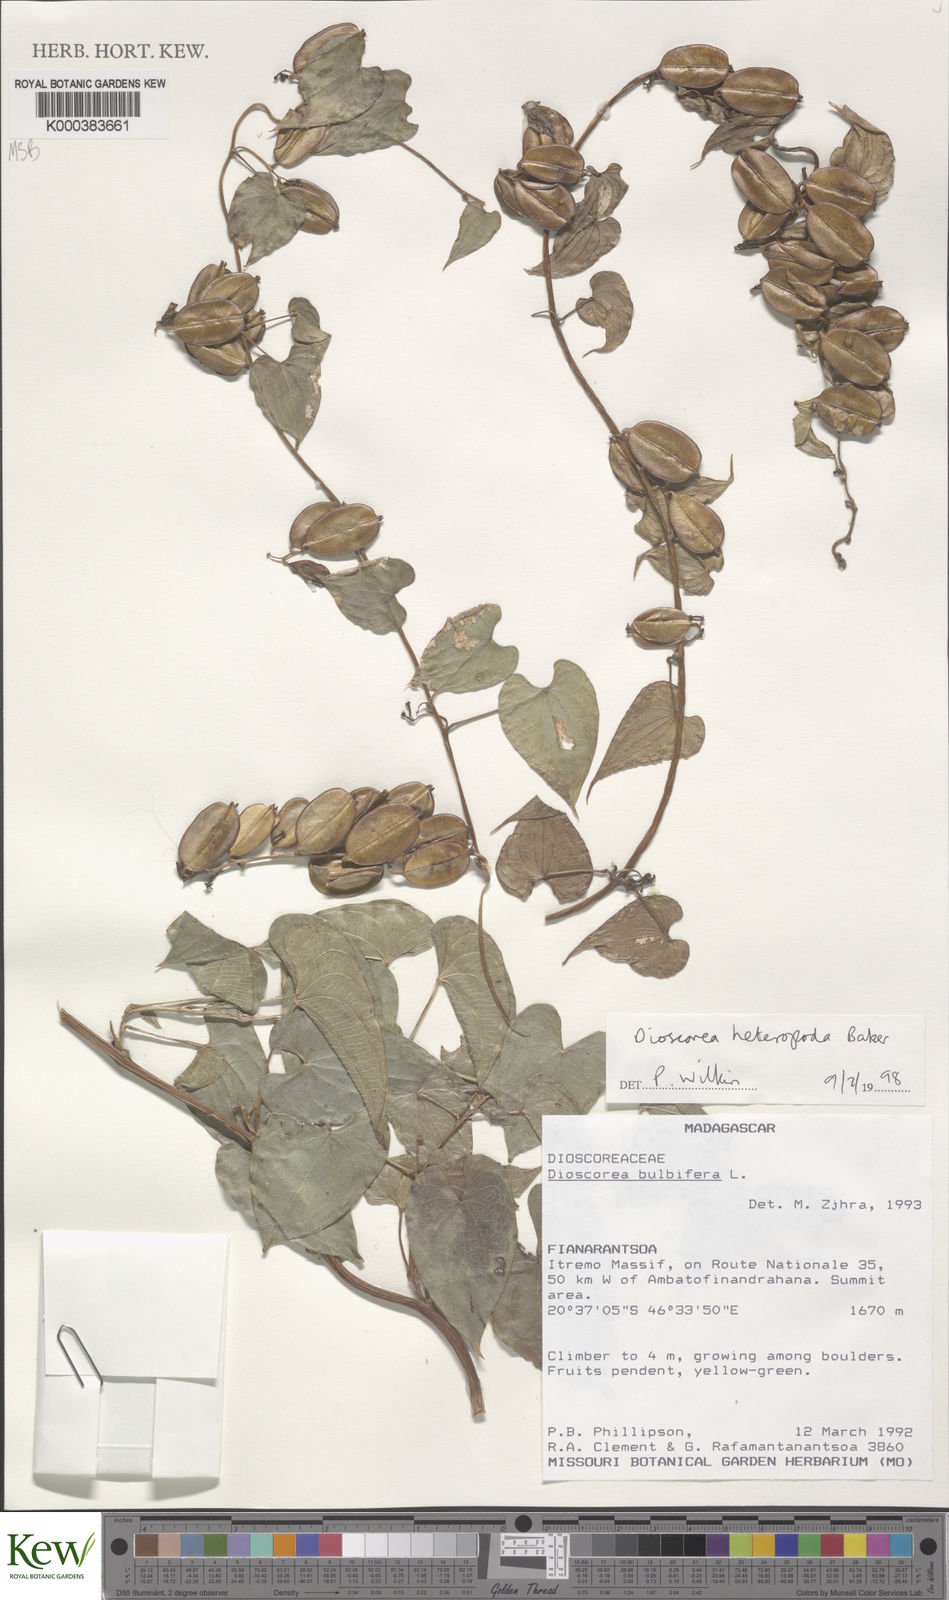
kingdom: Plantae
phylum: Tracheophyta
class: Liliopsida
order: Dioscoreales
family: Dioscoreaceae
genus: Dioscorea
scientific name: Dioscorea heteropoda
